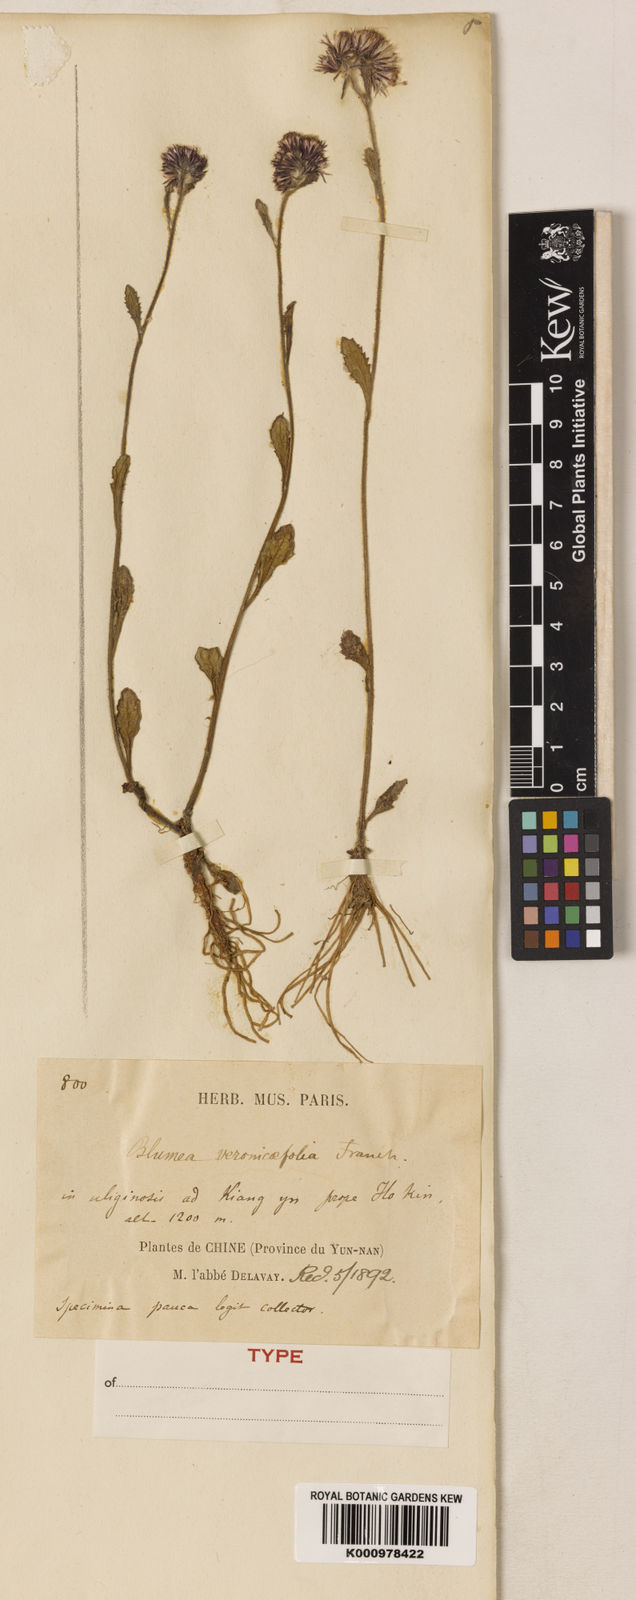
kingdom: Plantae
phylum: Tracheophyta
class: Magnoliopsida
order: Asterales
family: Asteraceae
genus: Blumea
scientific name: Blumea veronicifolia
